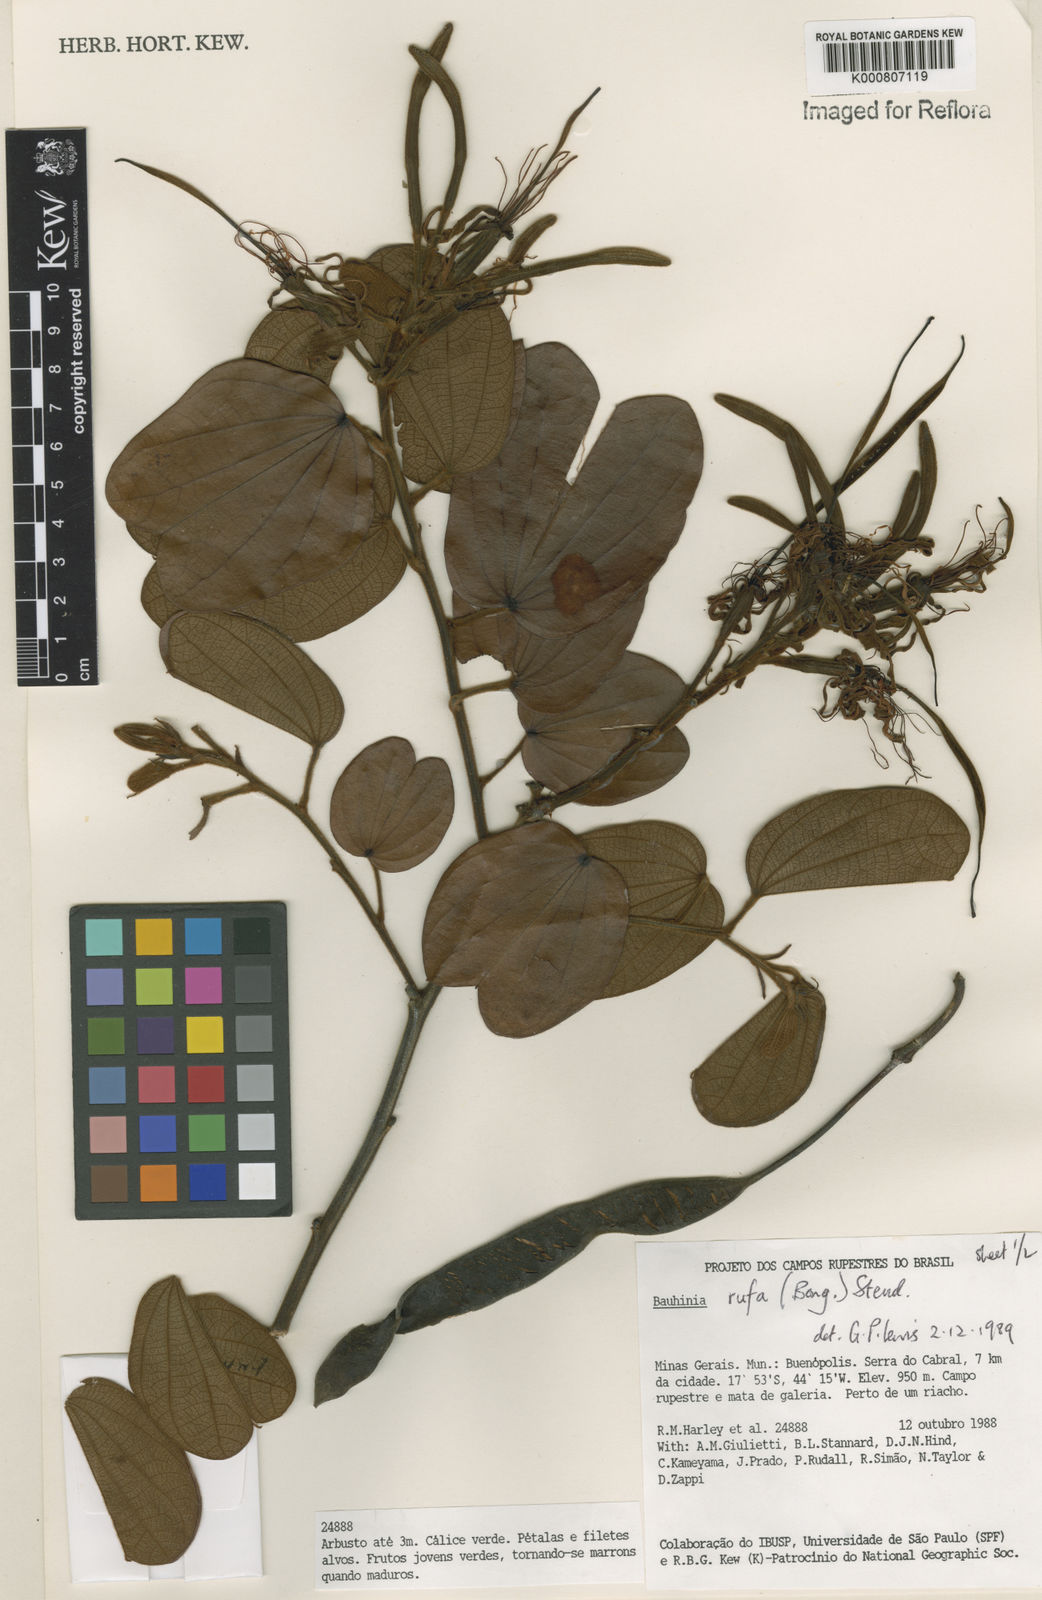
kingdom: Plantae
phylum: Tracheophyta
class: Magnoliopsida
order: Fabales
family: Fabaceae
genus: Bauhinia
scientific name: Bauhinia rufa
